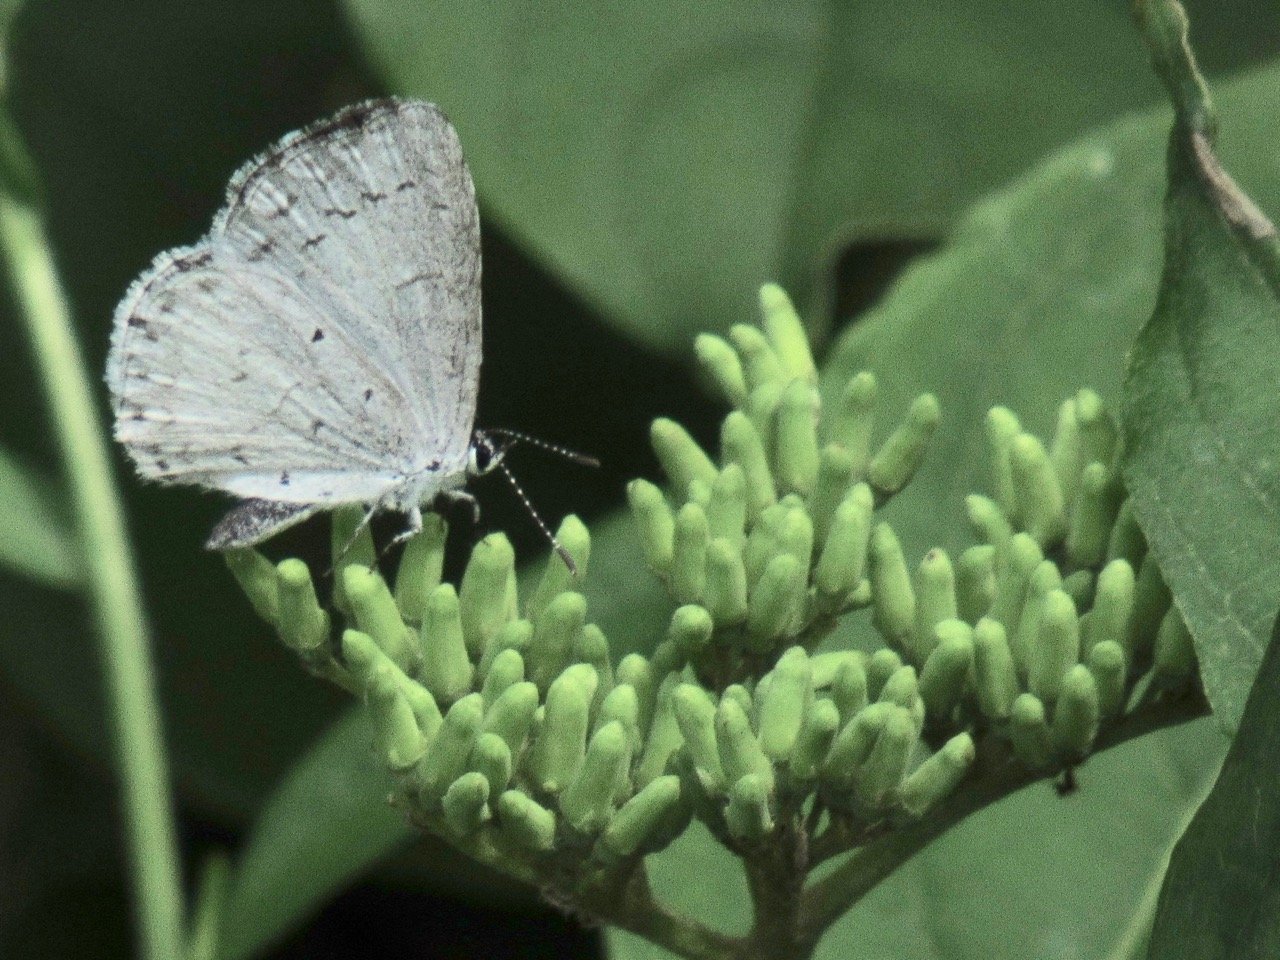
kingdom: Animalia
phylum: Arthropoda
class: Insecta
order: Lepidoptera
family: Lycaenidae
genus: Celastrina
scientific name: Celastrina
